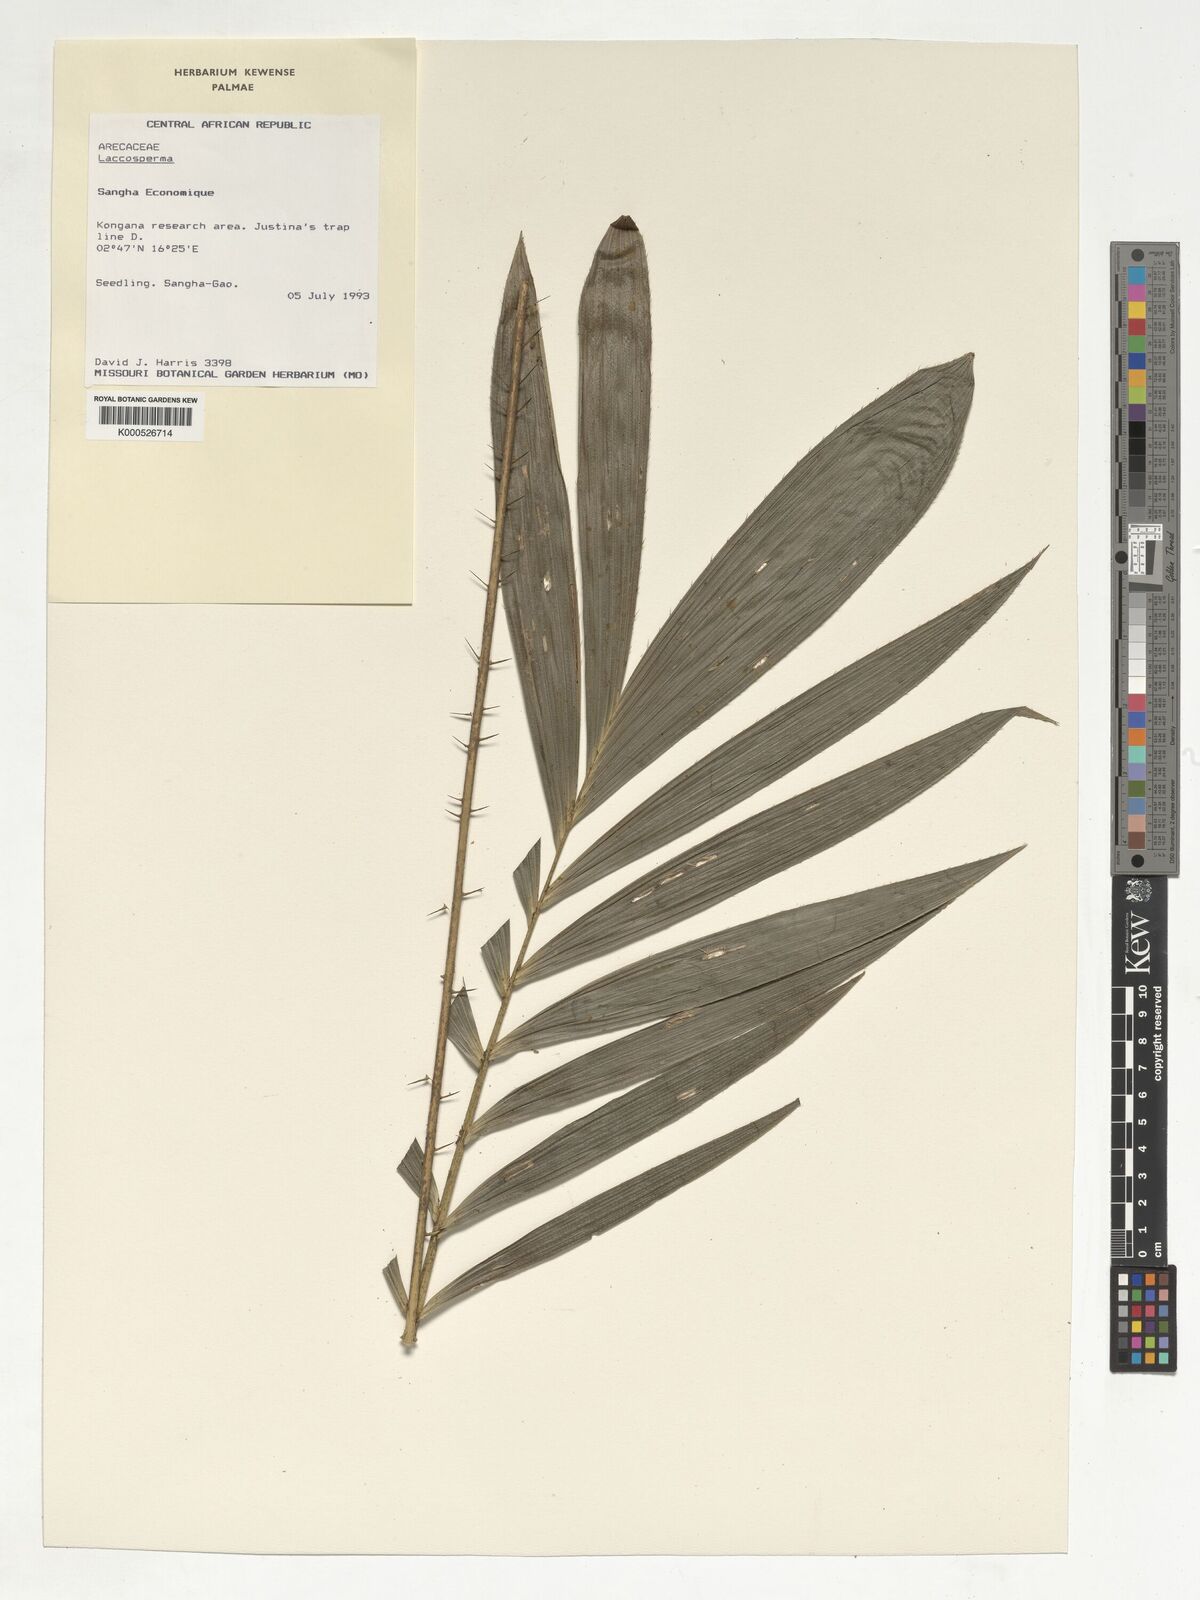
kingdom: Plantae
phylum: Tracheophyta
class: Liliopsida
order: Arecales
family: Arecaceae
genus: Laccosperma
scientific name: Laccosperma
